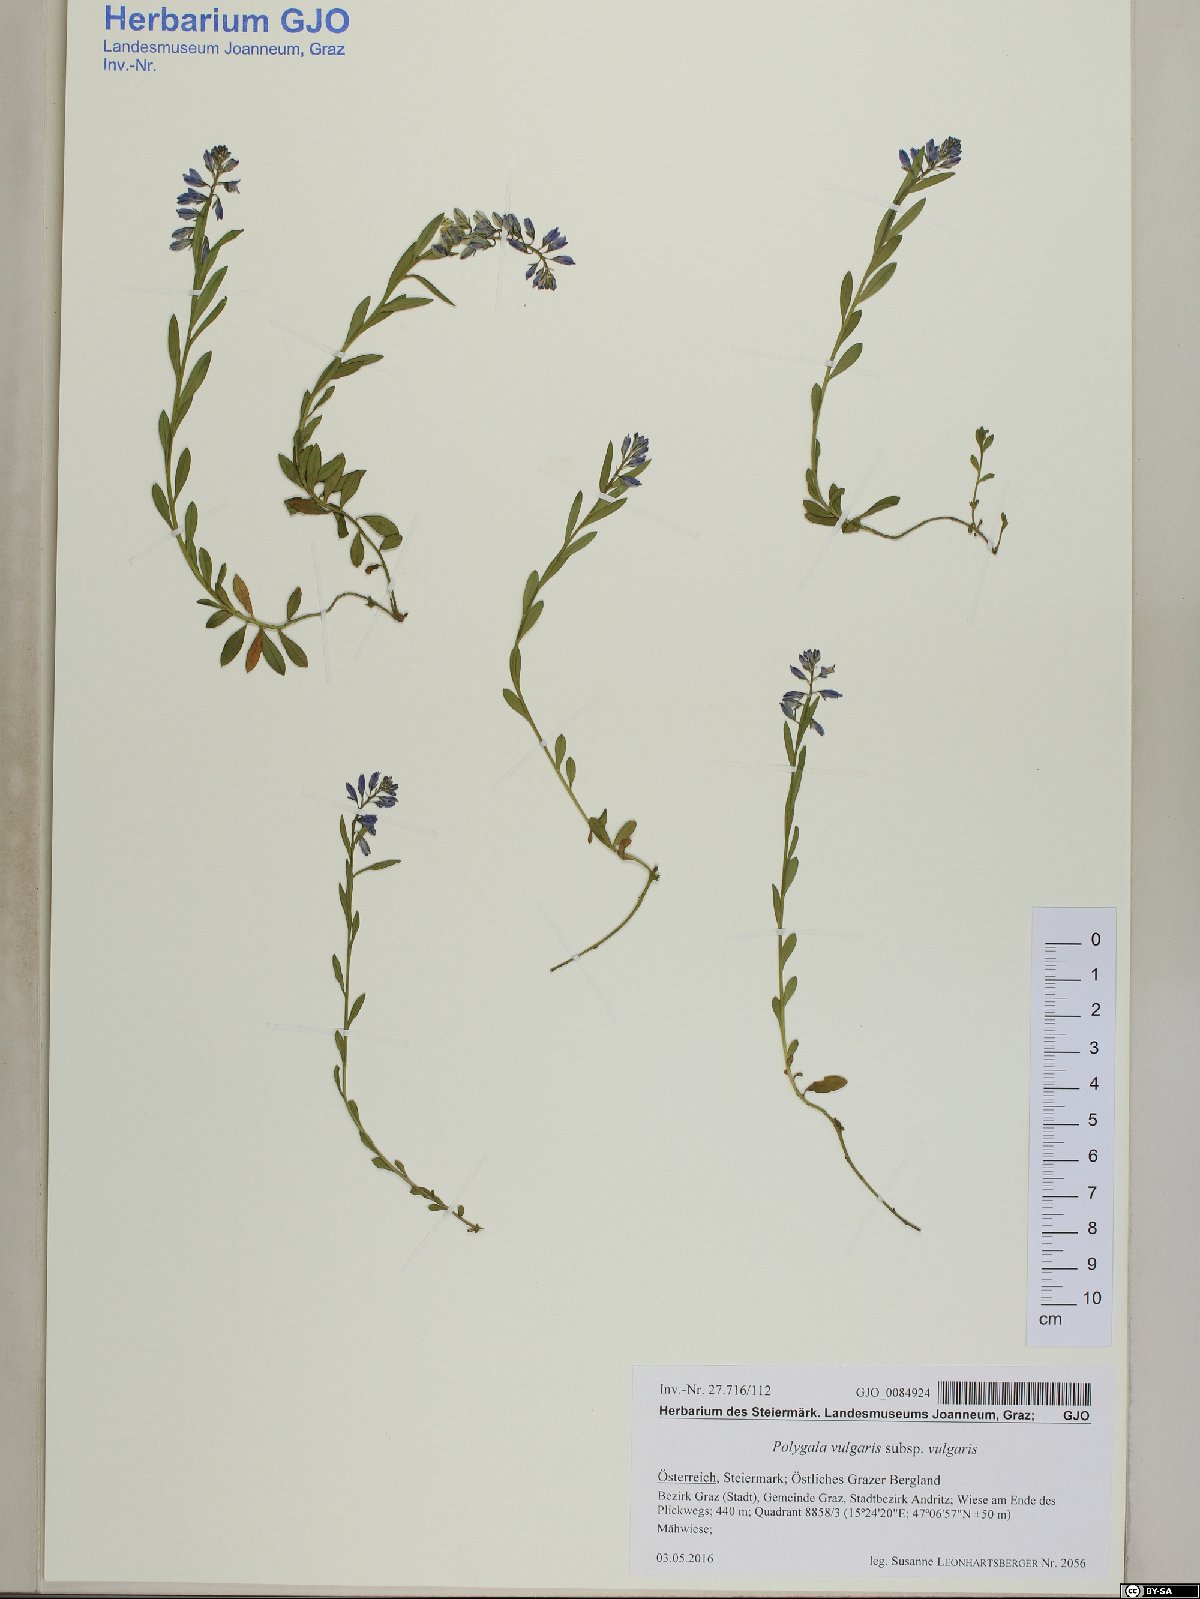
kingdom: Plantae
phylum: Tracheophyta
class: Magnoliopsida
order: Fabales
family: Polygalaceae
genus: Polygala
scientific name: Polygala vulgaris
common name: Common milkwort
